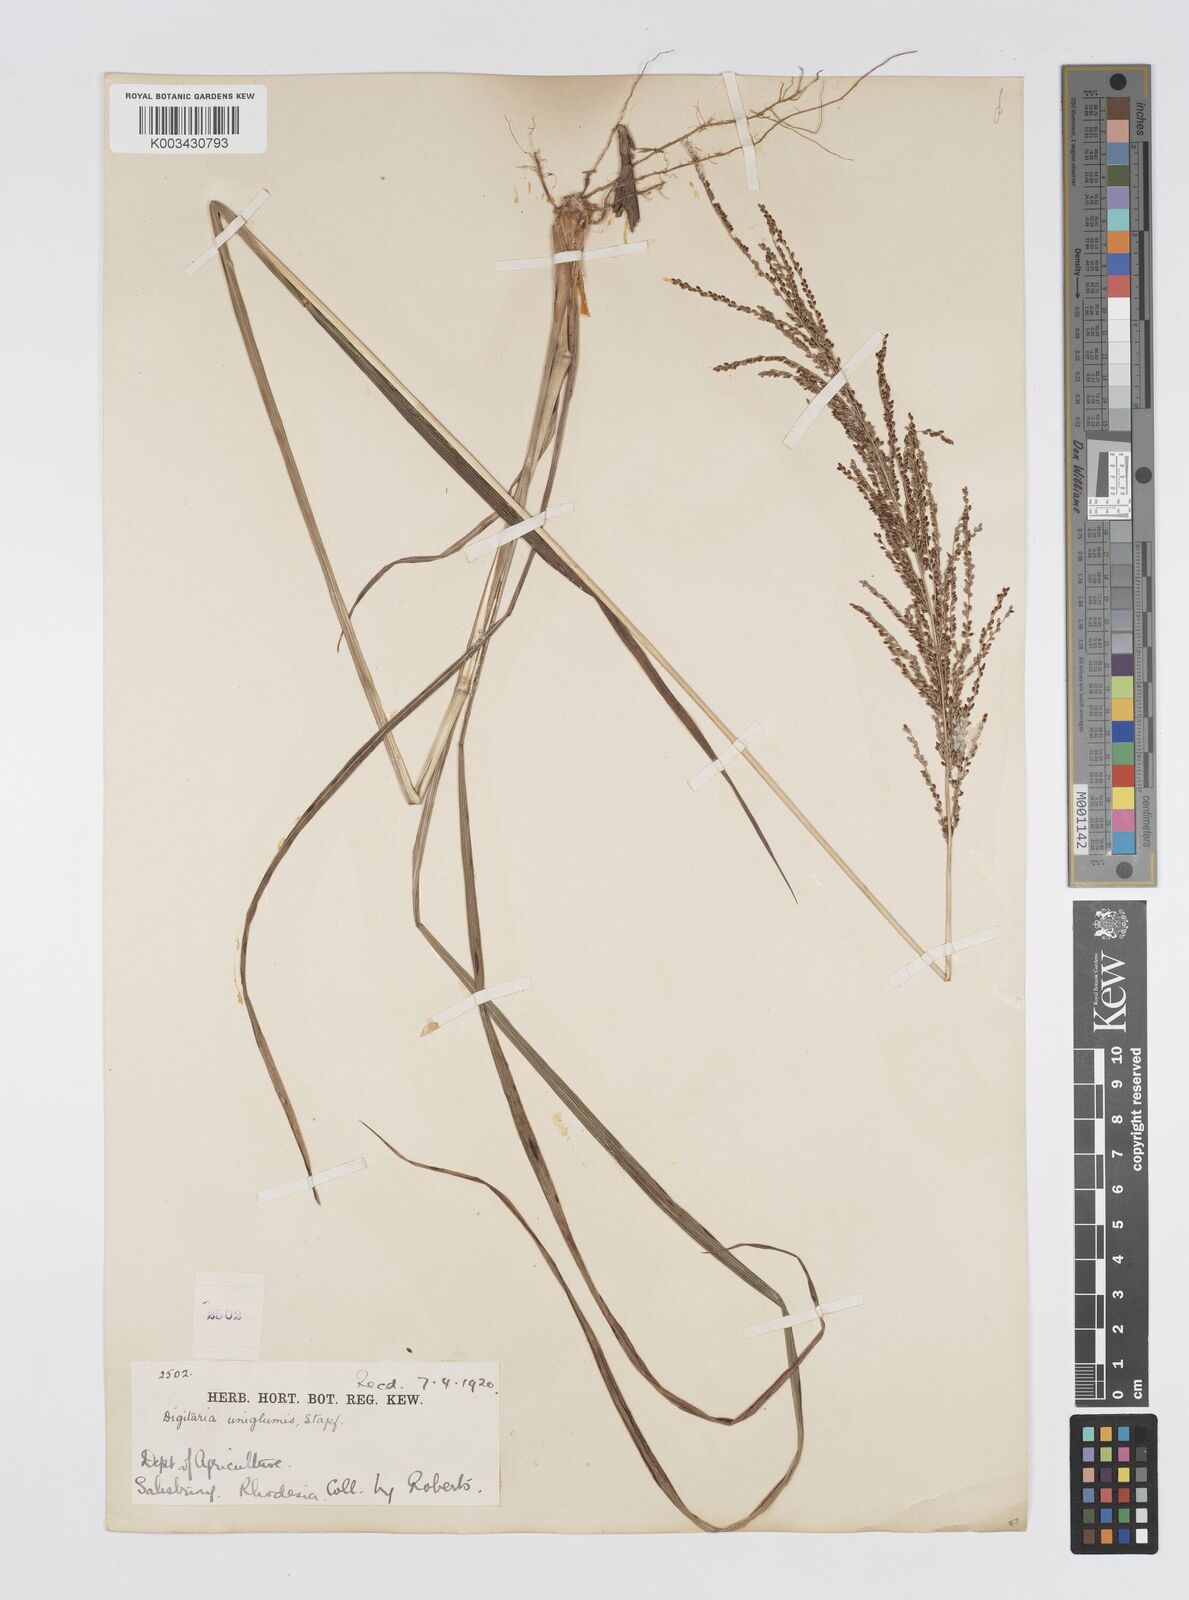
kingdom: Plantae
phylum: Tracheophyta
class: Liliopsida
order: Poales
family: Poaceae
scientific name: Poaceae
